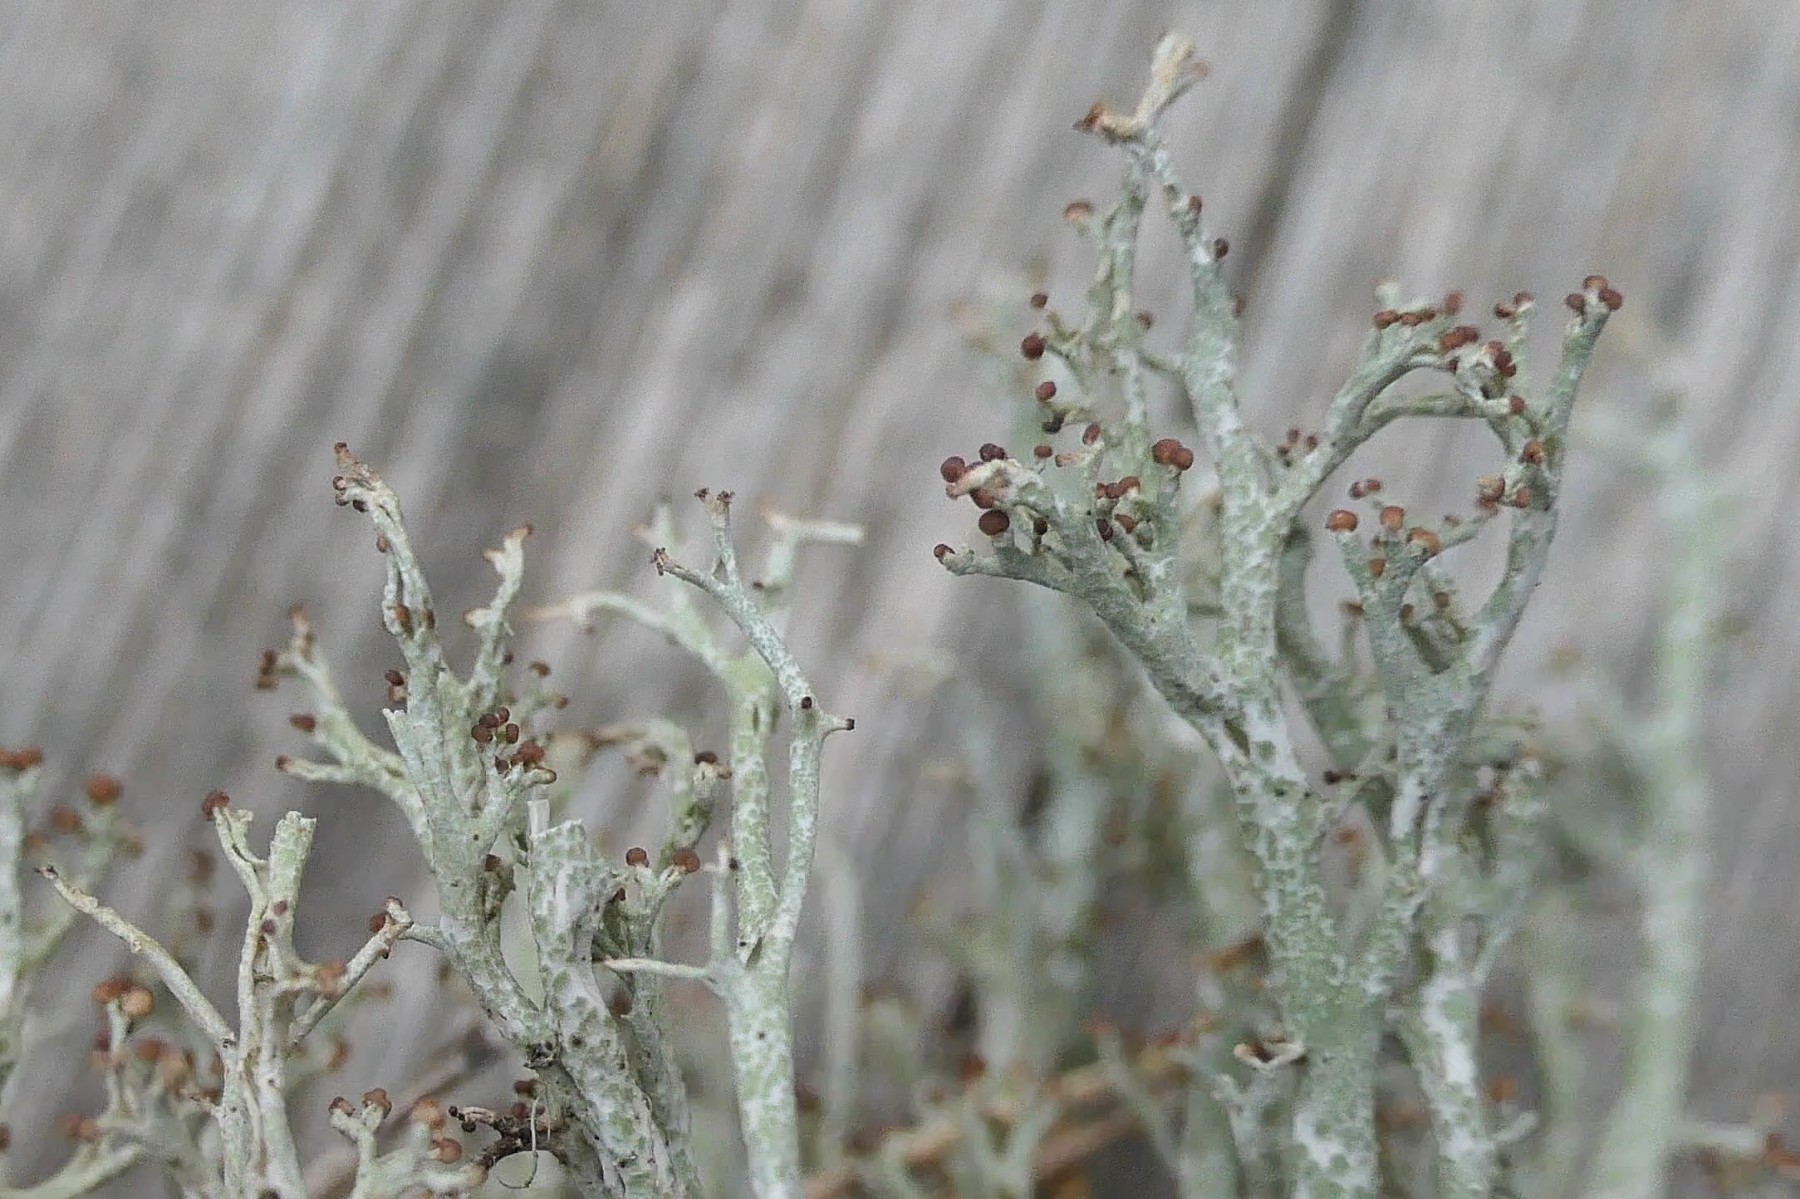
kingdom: Fungi
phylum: Ascomycota
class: Lecanoromycetes
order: Lecanorales
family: Cladoniaceae
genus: Cladonia
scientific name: Cladonia rangiformis
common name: spættet bægerlav
